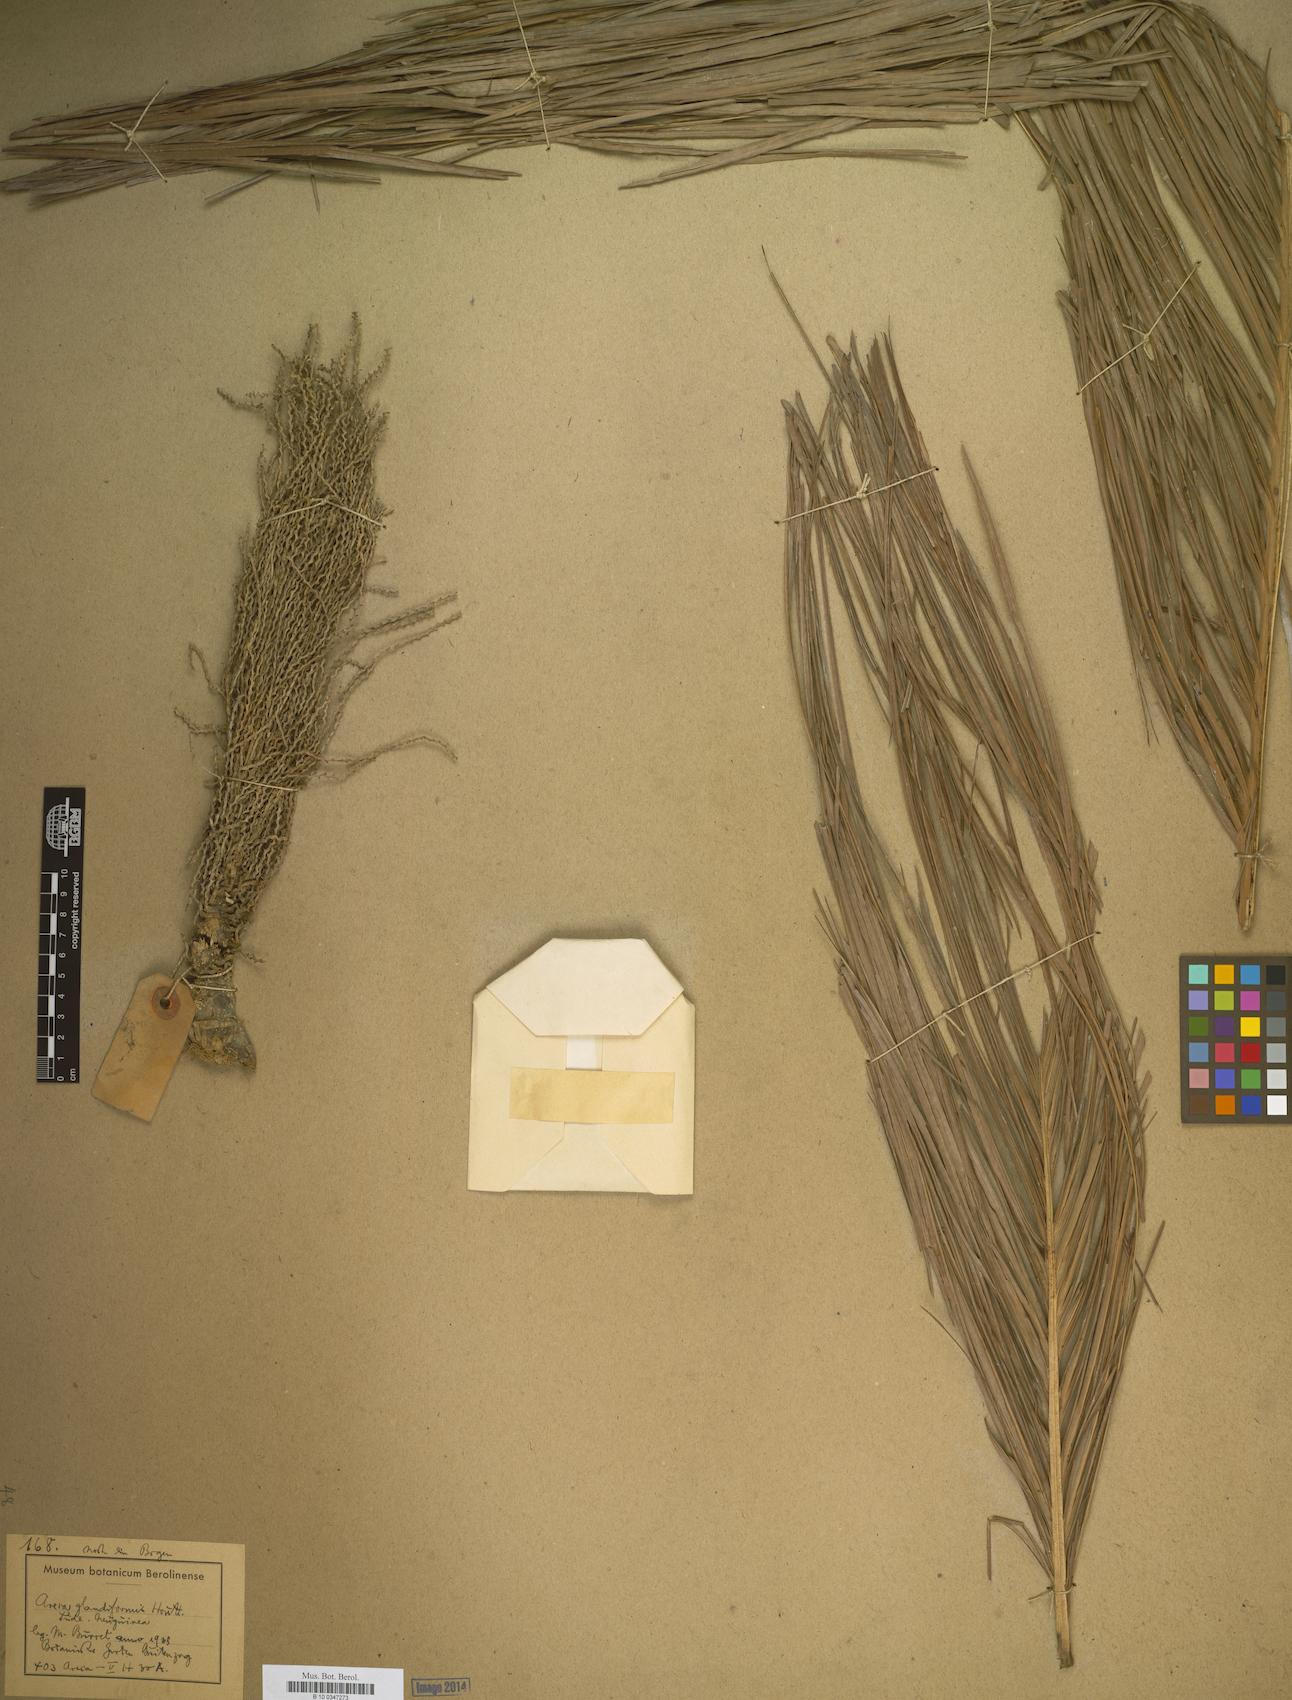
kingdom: Plantae
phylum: Tracheophyta
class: Liliopsida
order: Arecales
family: Arecaceae
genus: Areca
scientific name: Areca macrocalyx
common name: Highland betel-nut palm
